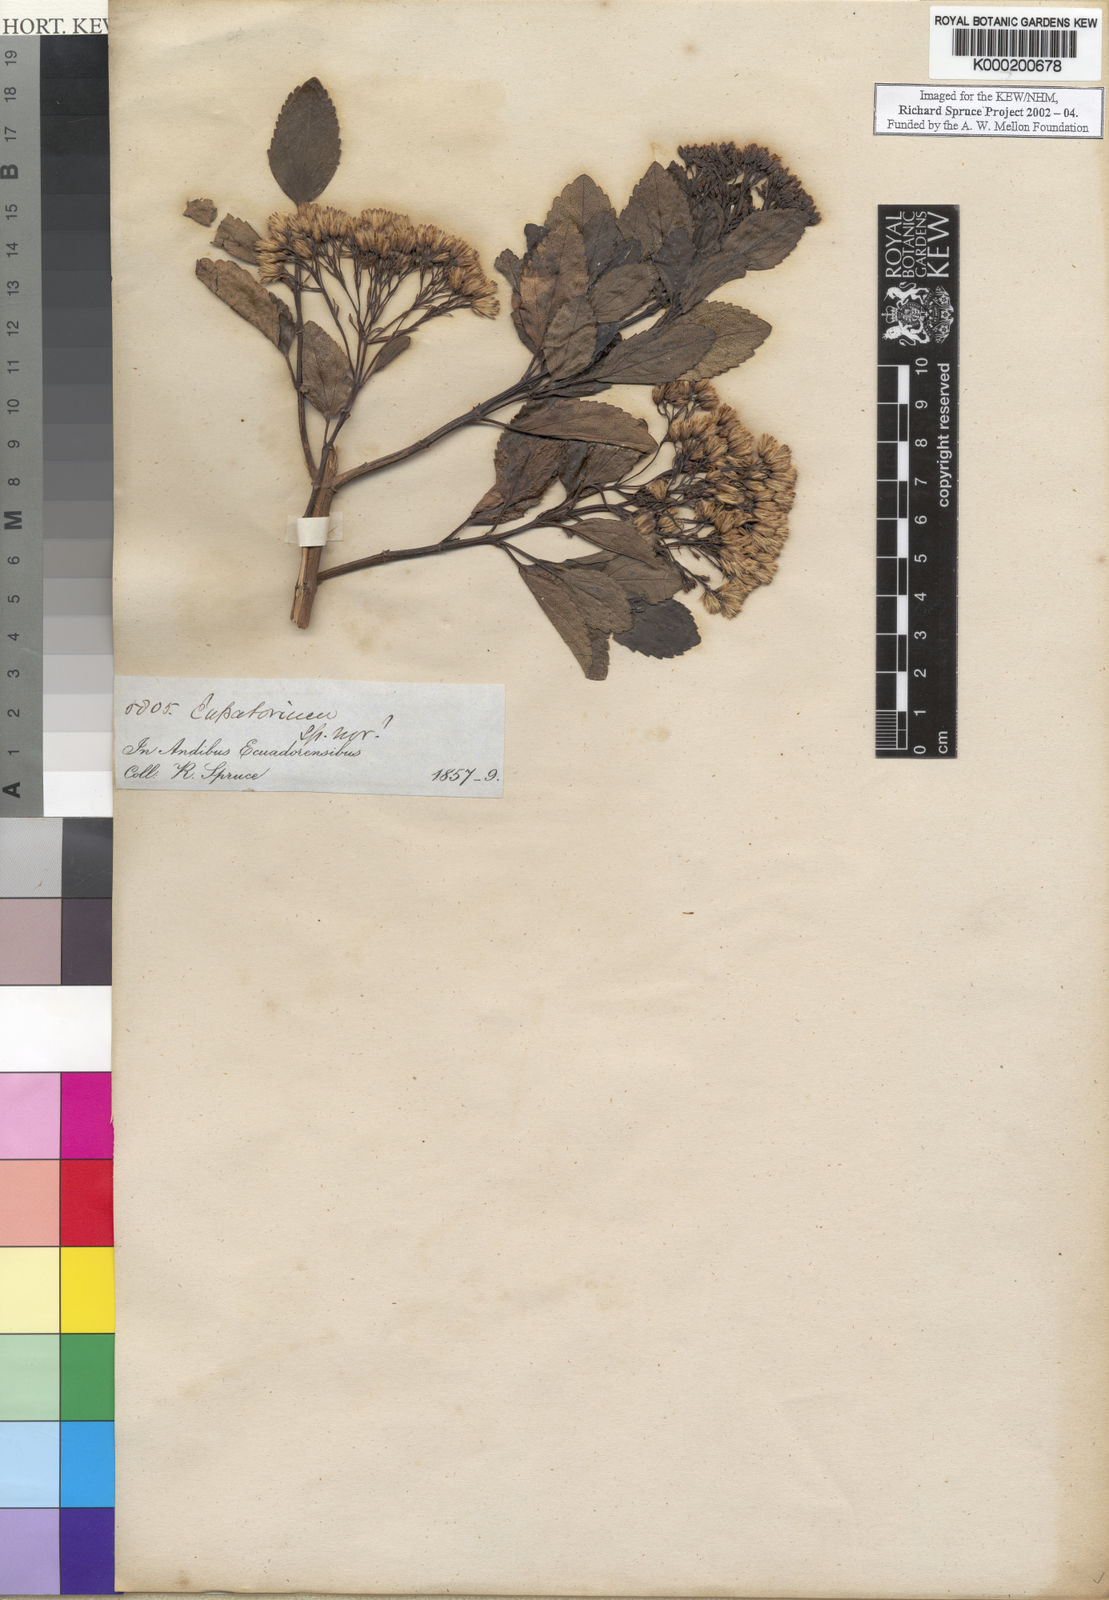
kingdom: Plantae
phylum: Tracheophyta
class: Magnoliopsida
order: Asterales
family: Asteraceae
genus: Eupatorium
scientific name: Eupatorium
